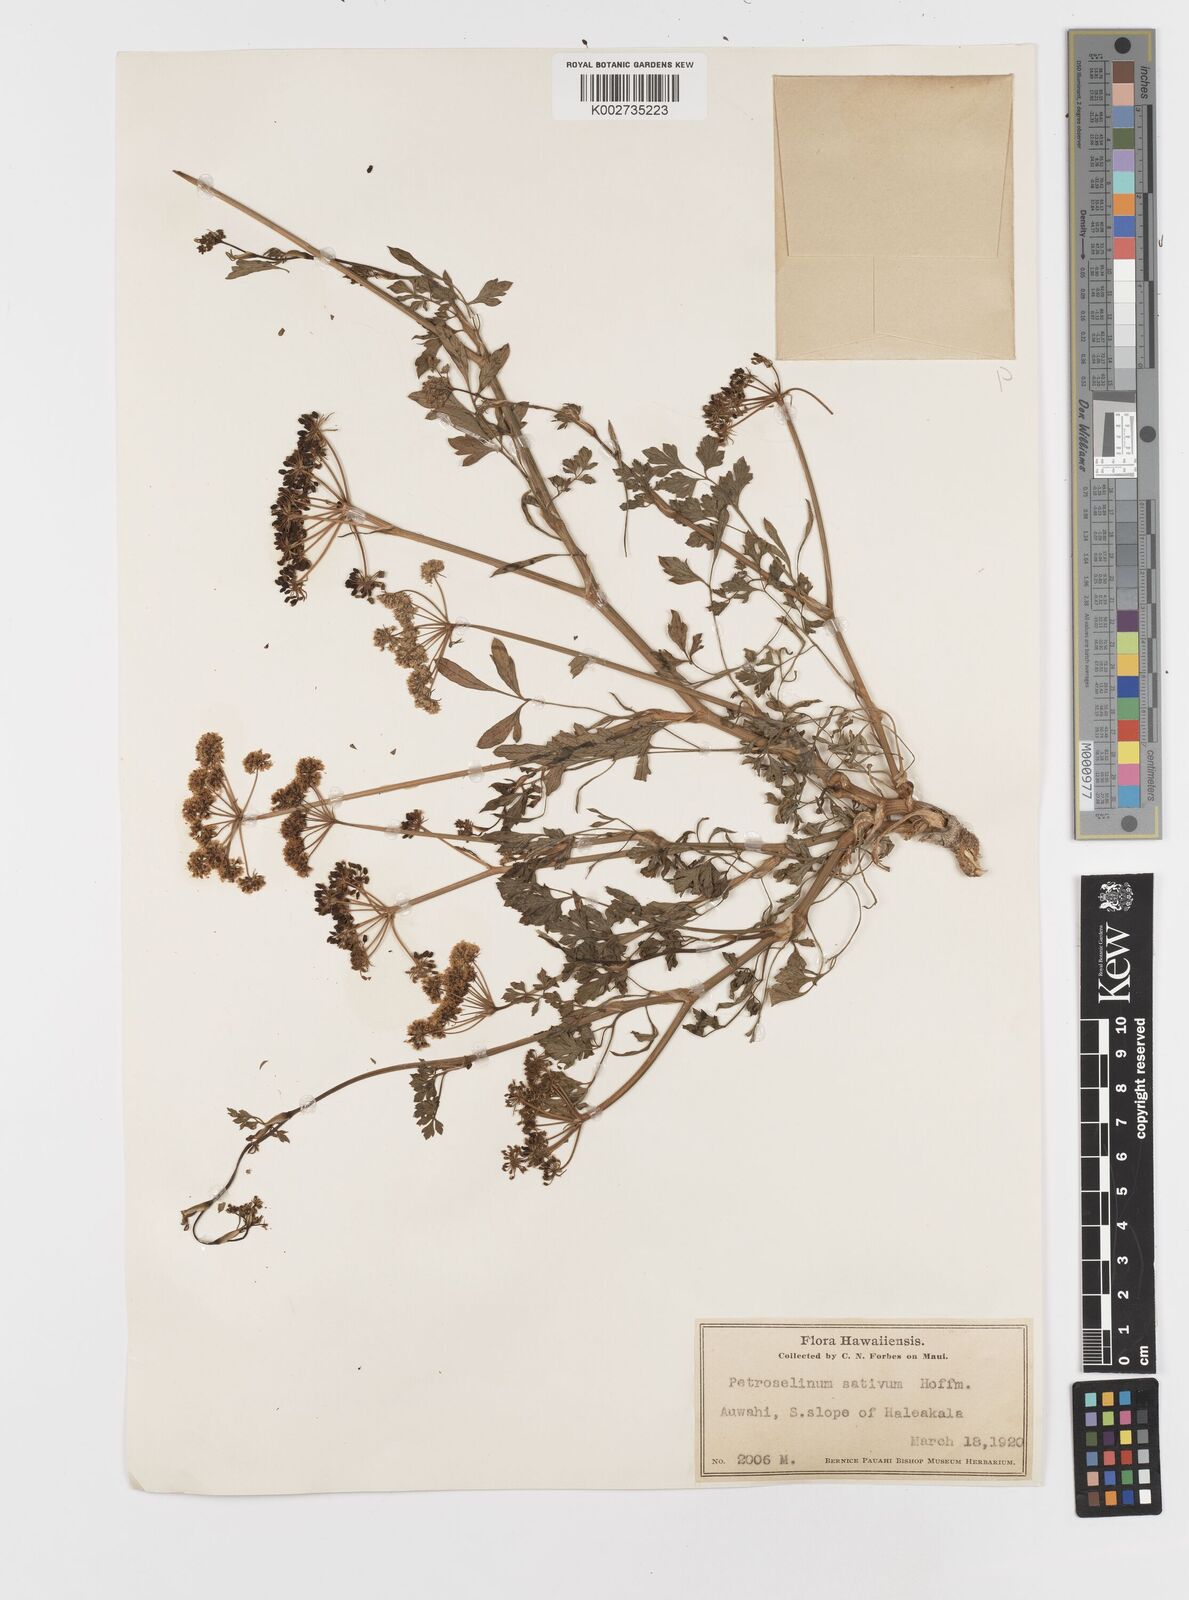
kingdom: Plantae
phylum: Tracheophyta
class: Magnoliopsida
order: Apiales
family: Apiaceae
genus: Petroselinum
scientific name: Petroselinum crispum
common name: Parsley
